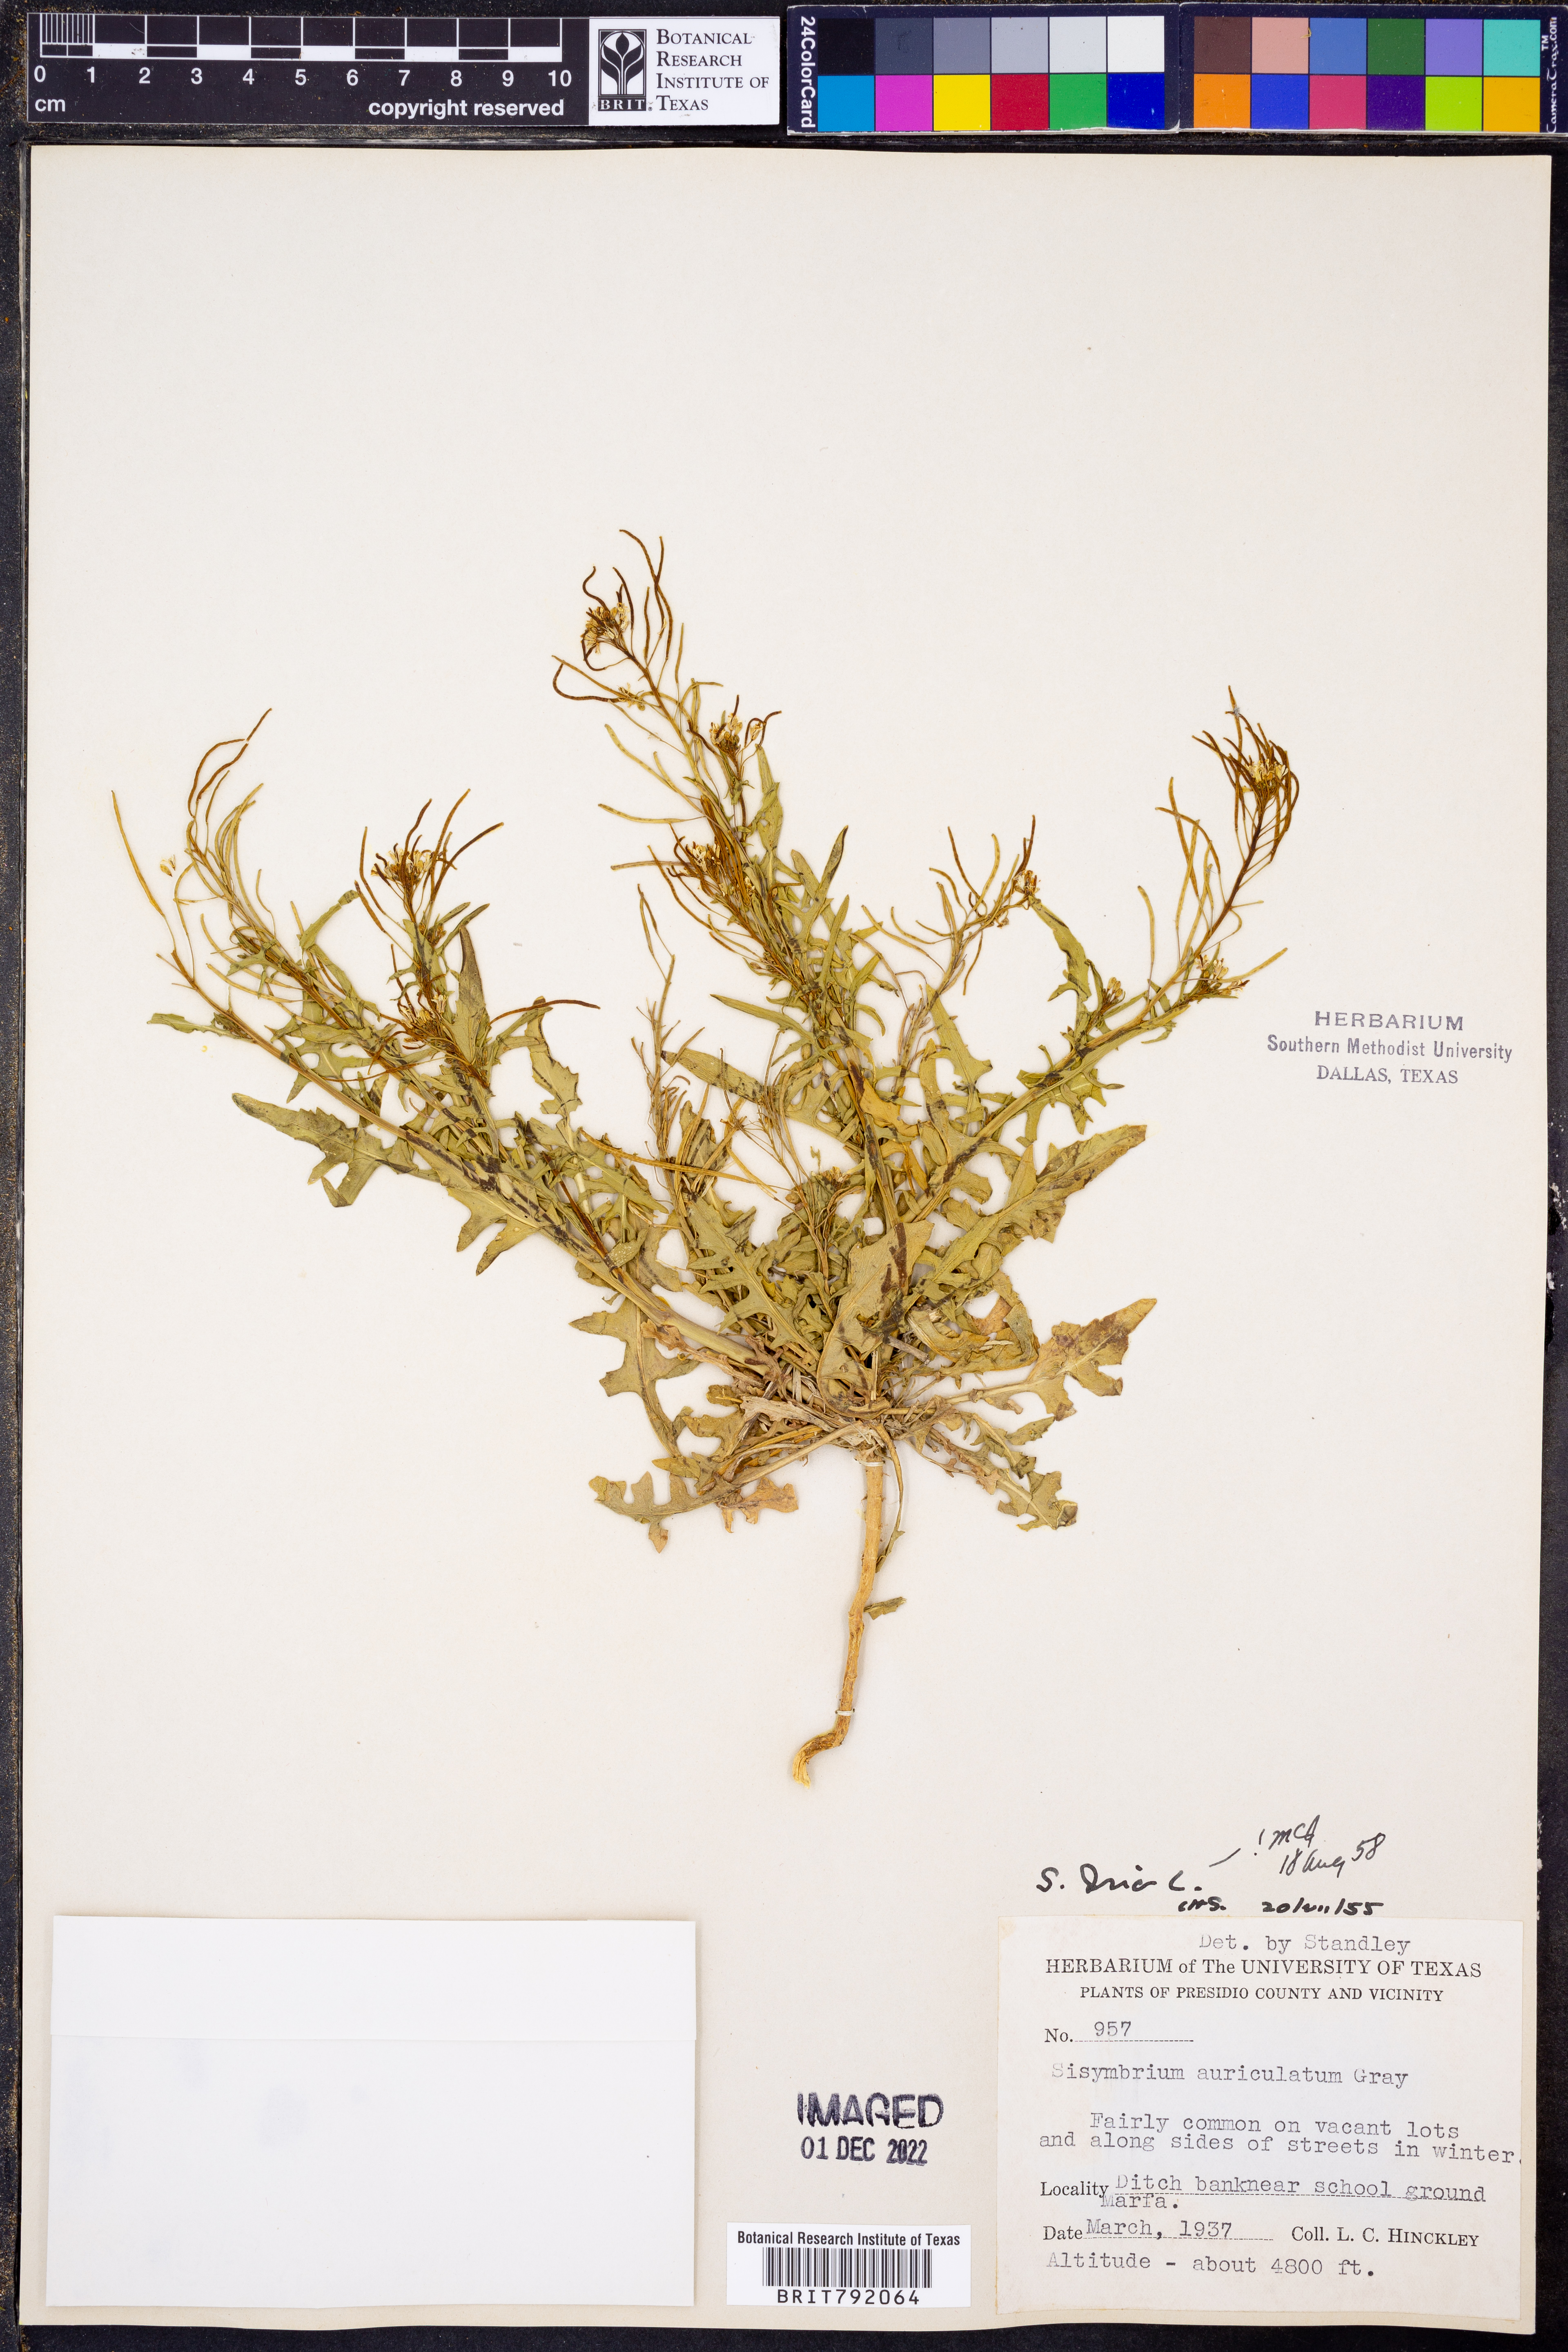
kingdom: Plantae
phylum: Tracheophyta
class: Magnoliopsida
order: Brassicales
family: Brassicaceae
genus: Sisymbrium
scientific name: Sisymbrium irio
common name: London rocket
